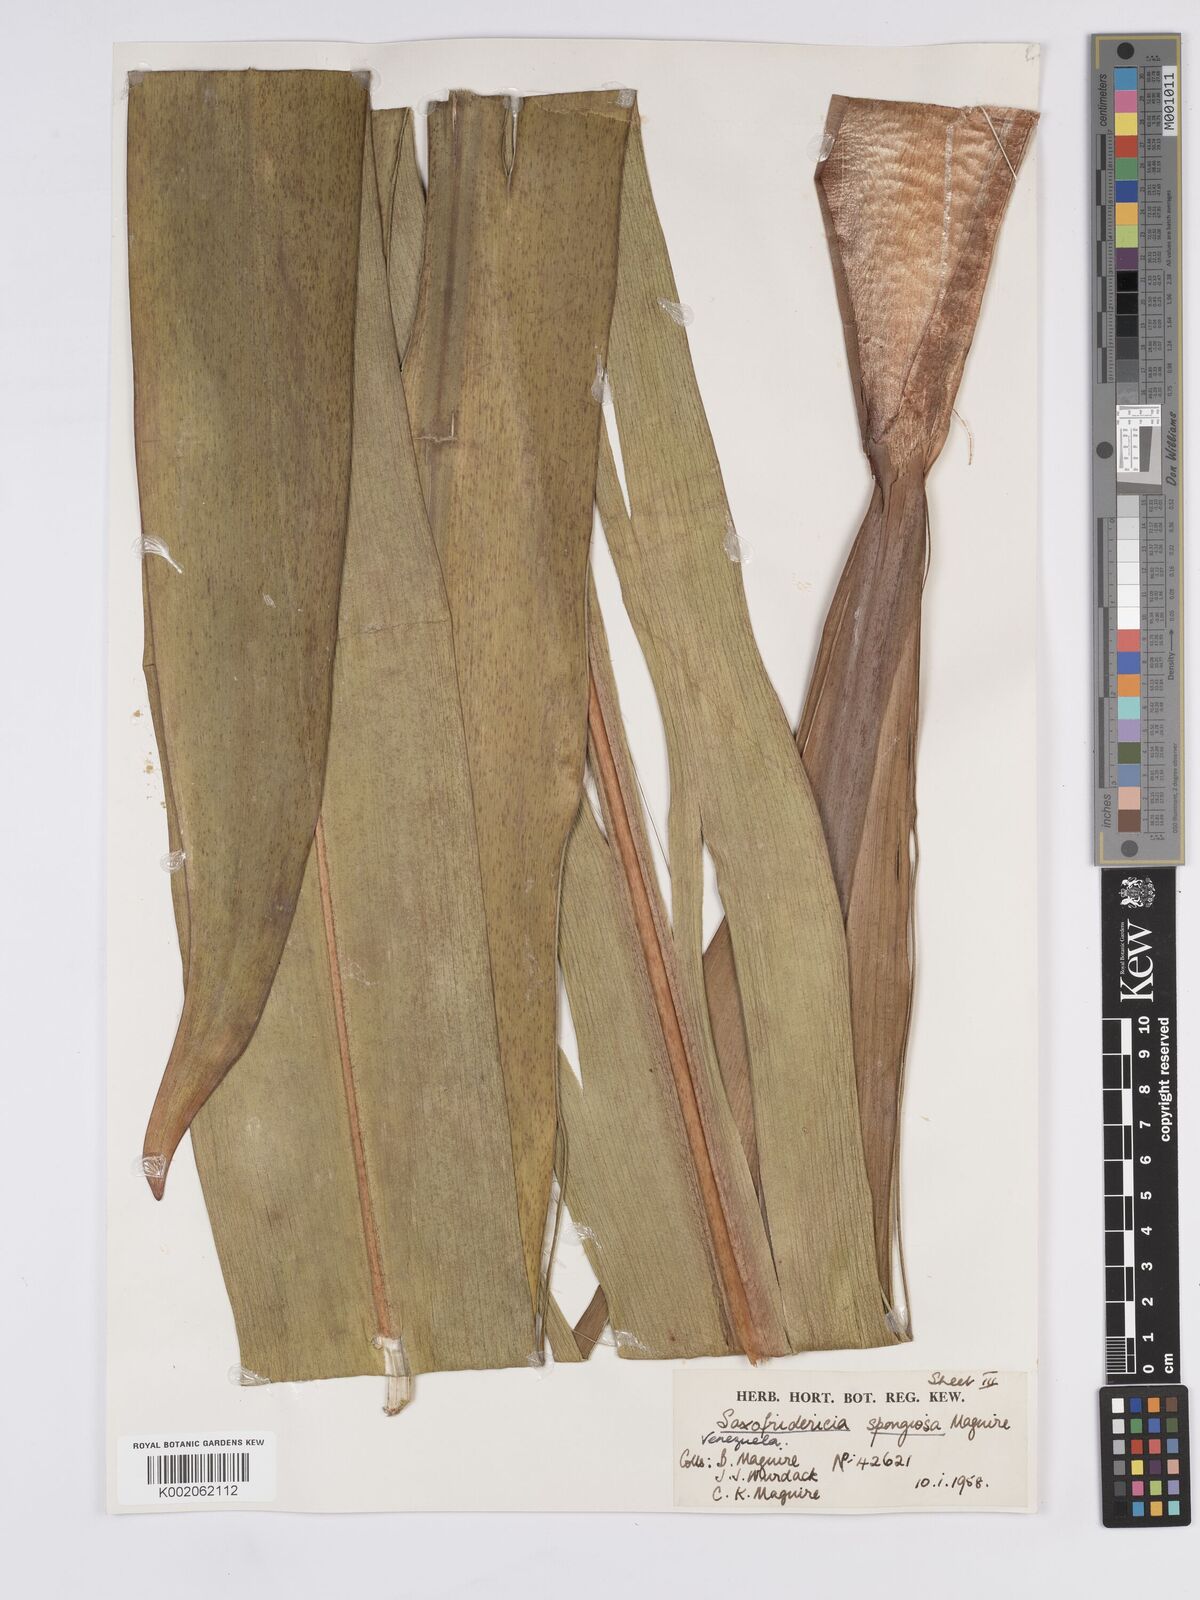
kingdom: Plantae
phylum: Tracheophyta
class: Liliopsida
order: Poales
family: Rapateaceae
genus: Saxofridericia
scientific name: Saxofridericia spongiosa
